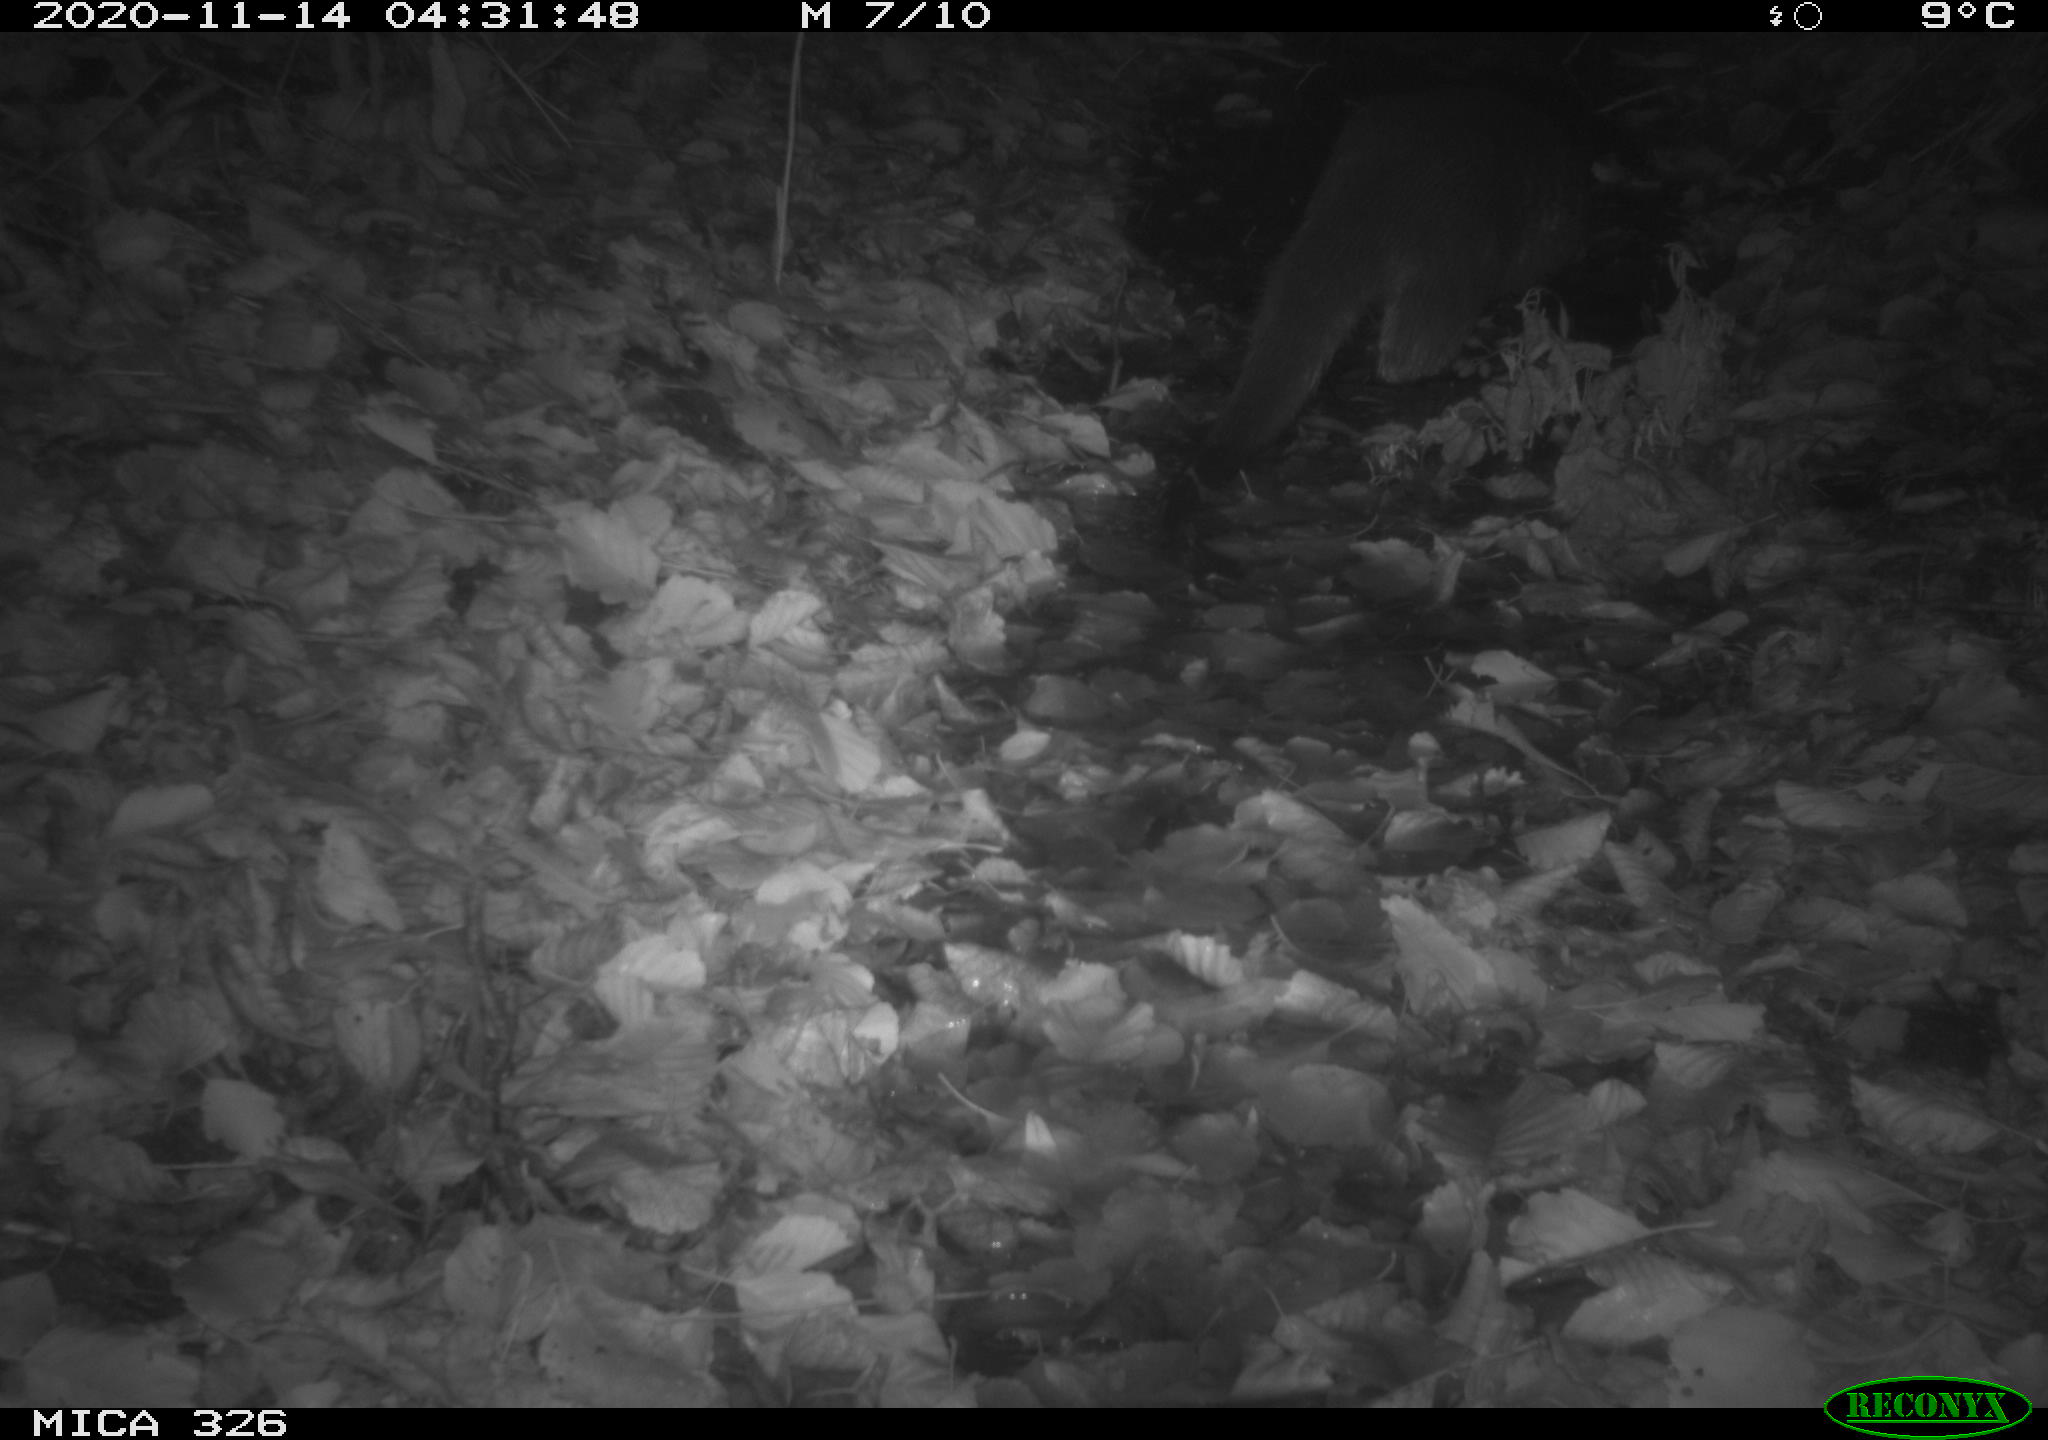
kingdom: Animalia
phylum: Chordata
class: Mammalia
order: Carnivora
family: Mustelidae
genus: Lutra
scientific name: Lutra lutra
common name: European otter
